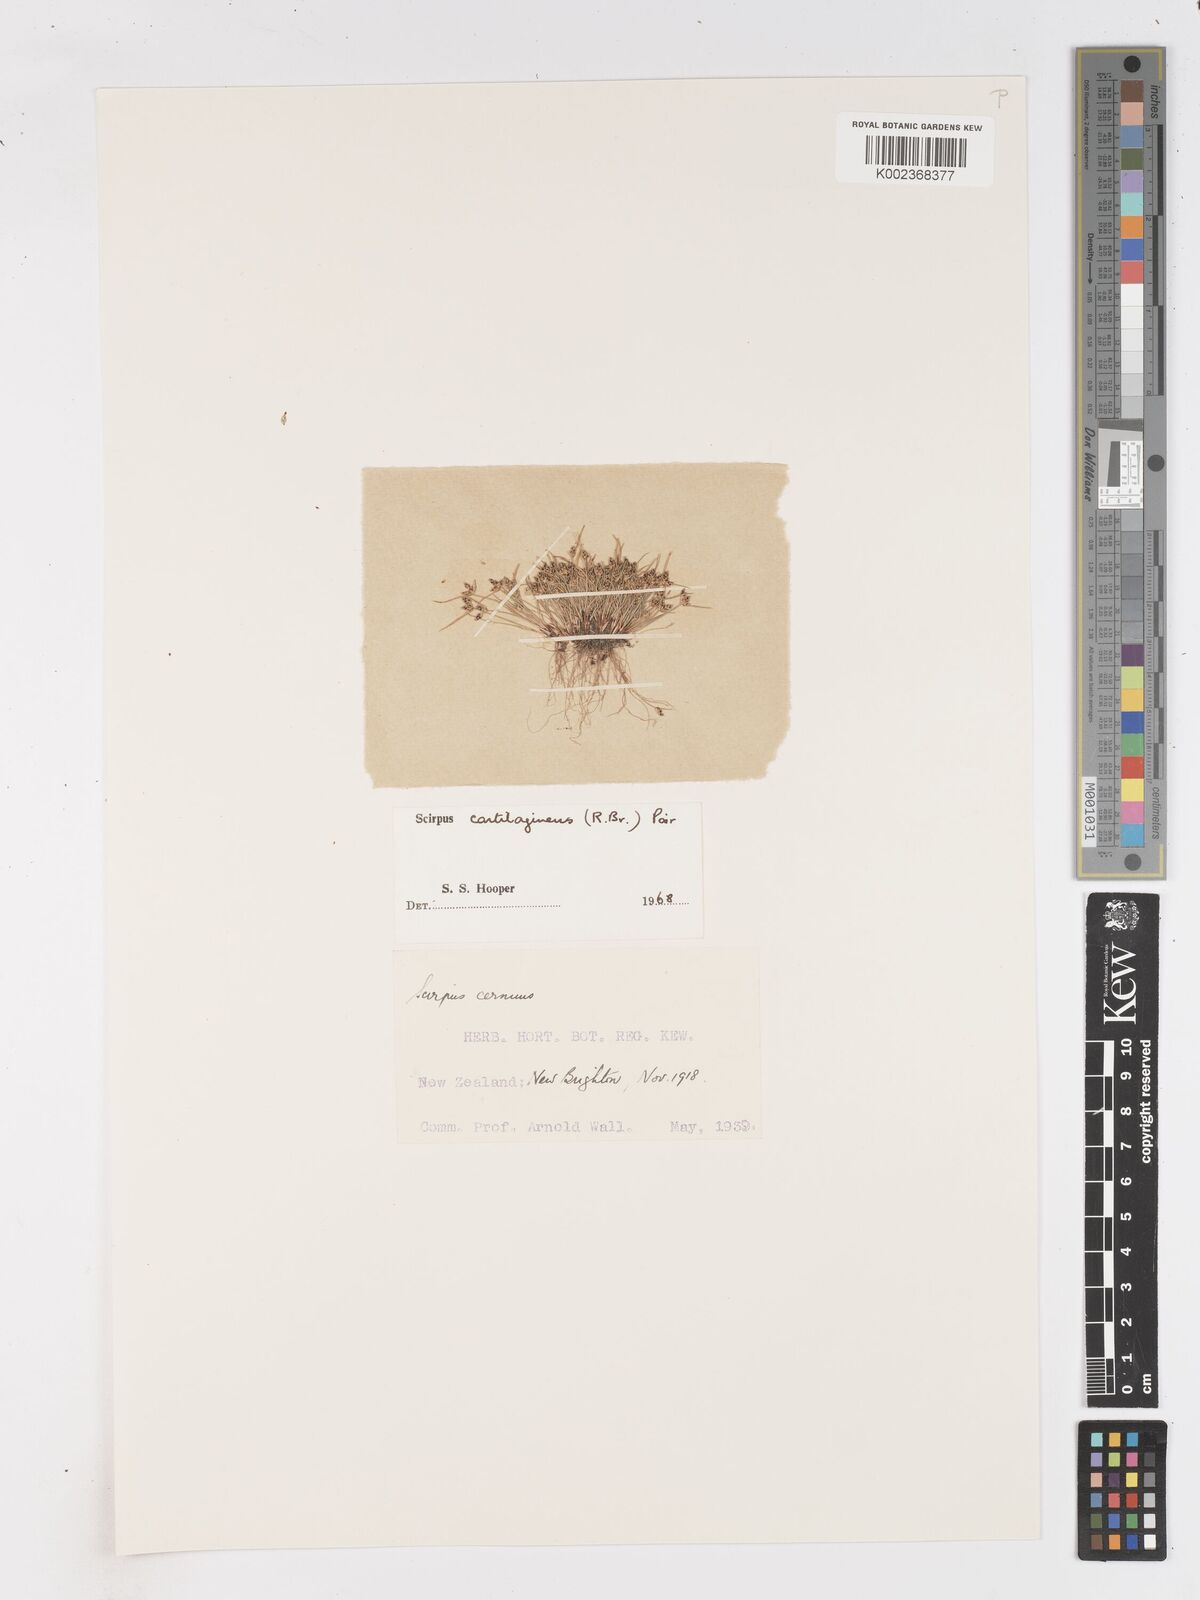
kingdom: Plantae
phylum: Tracheophyta
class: Liliopsida
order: Poales
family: Cyperaceae
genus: Isolepis
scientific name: Isolepis marginata
